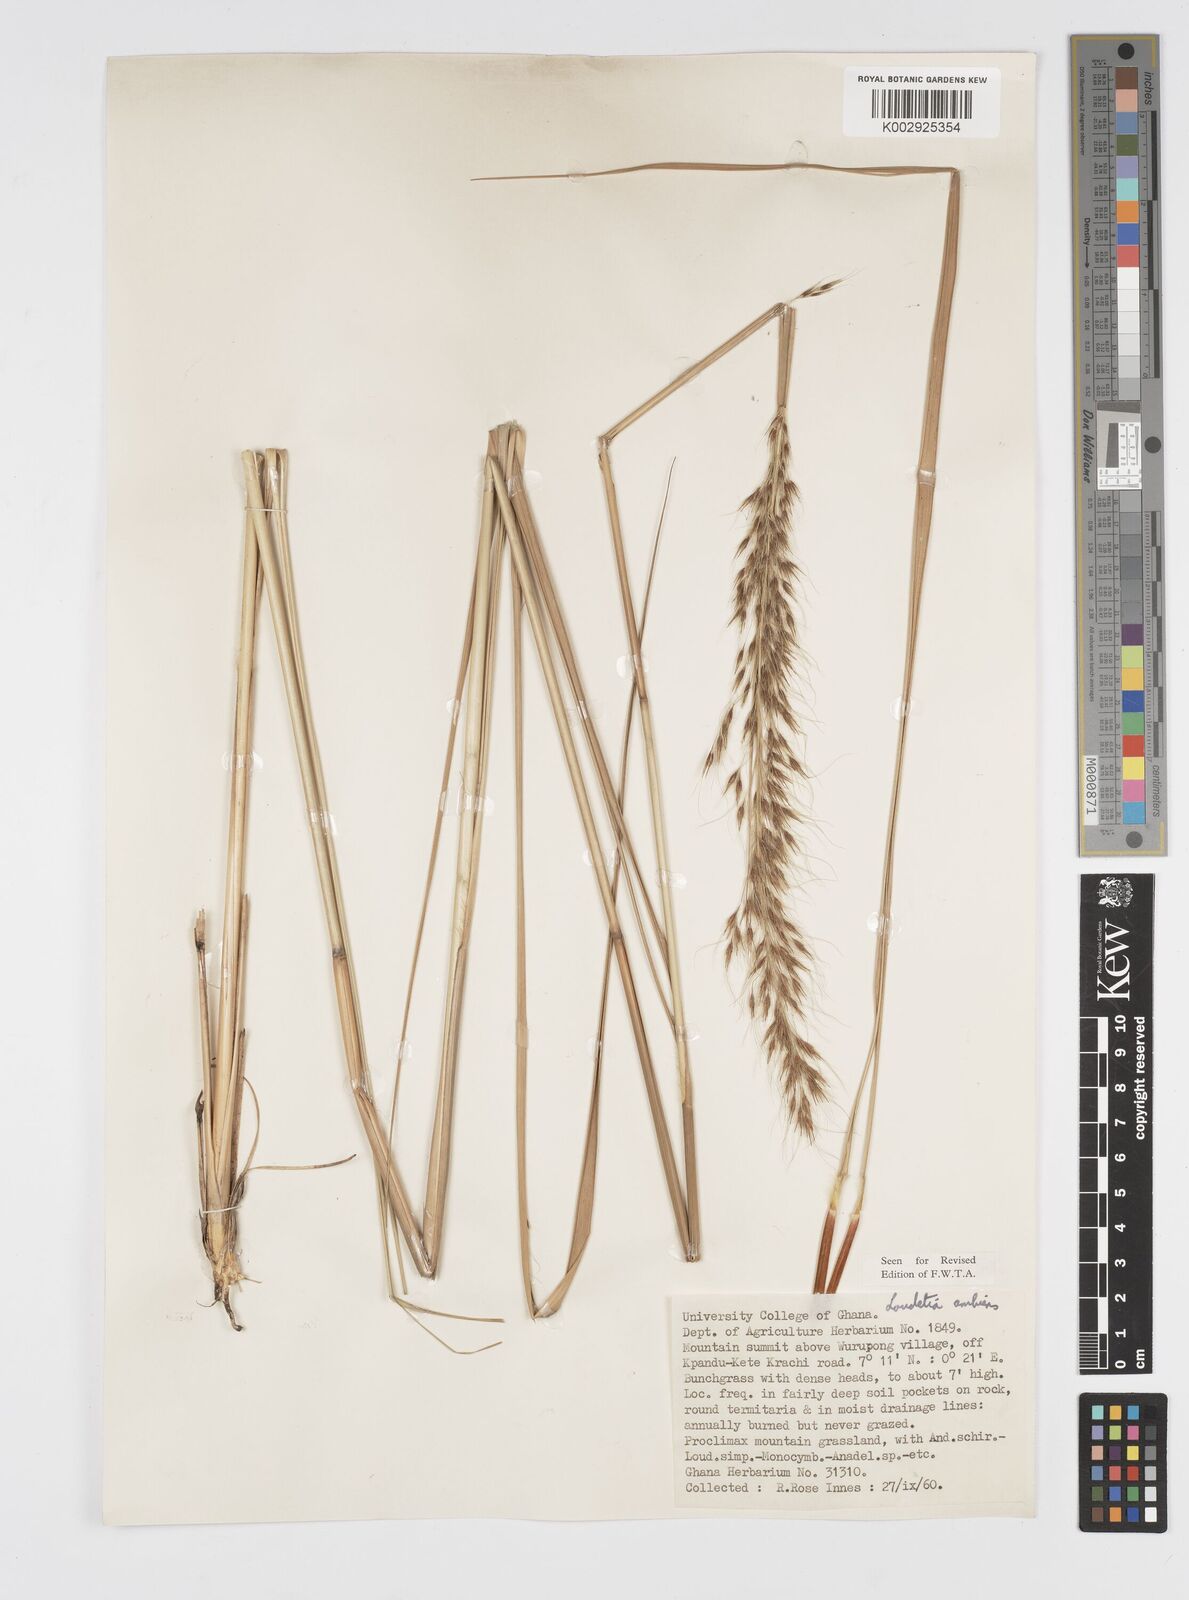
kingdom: Plantae
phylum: Tracheophyta
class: Liliopsida
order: Poales
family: Poaceae
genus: Loudetiopsis
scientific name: Loudetiopsis ambiens
